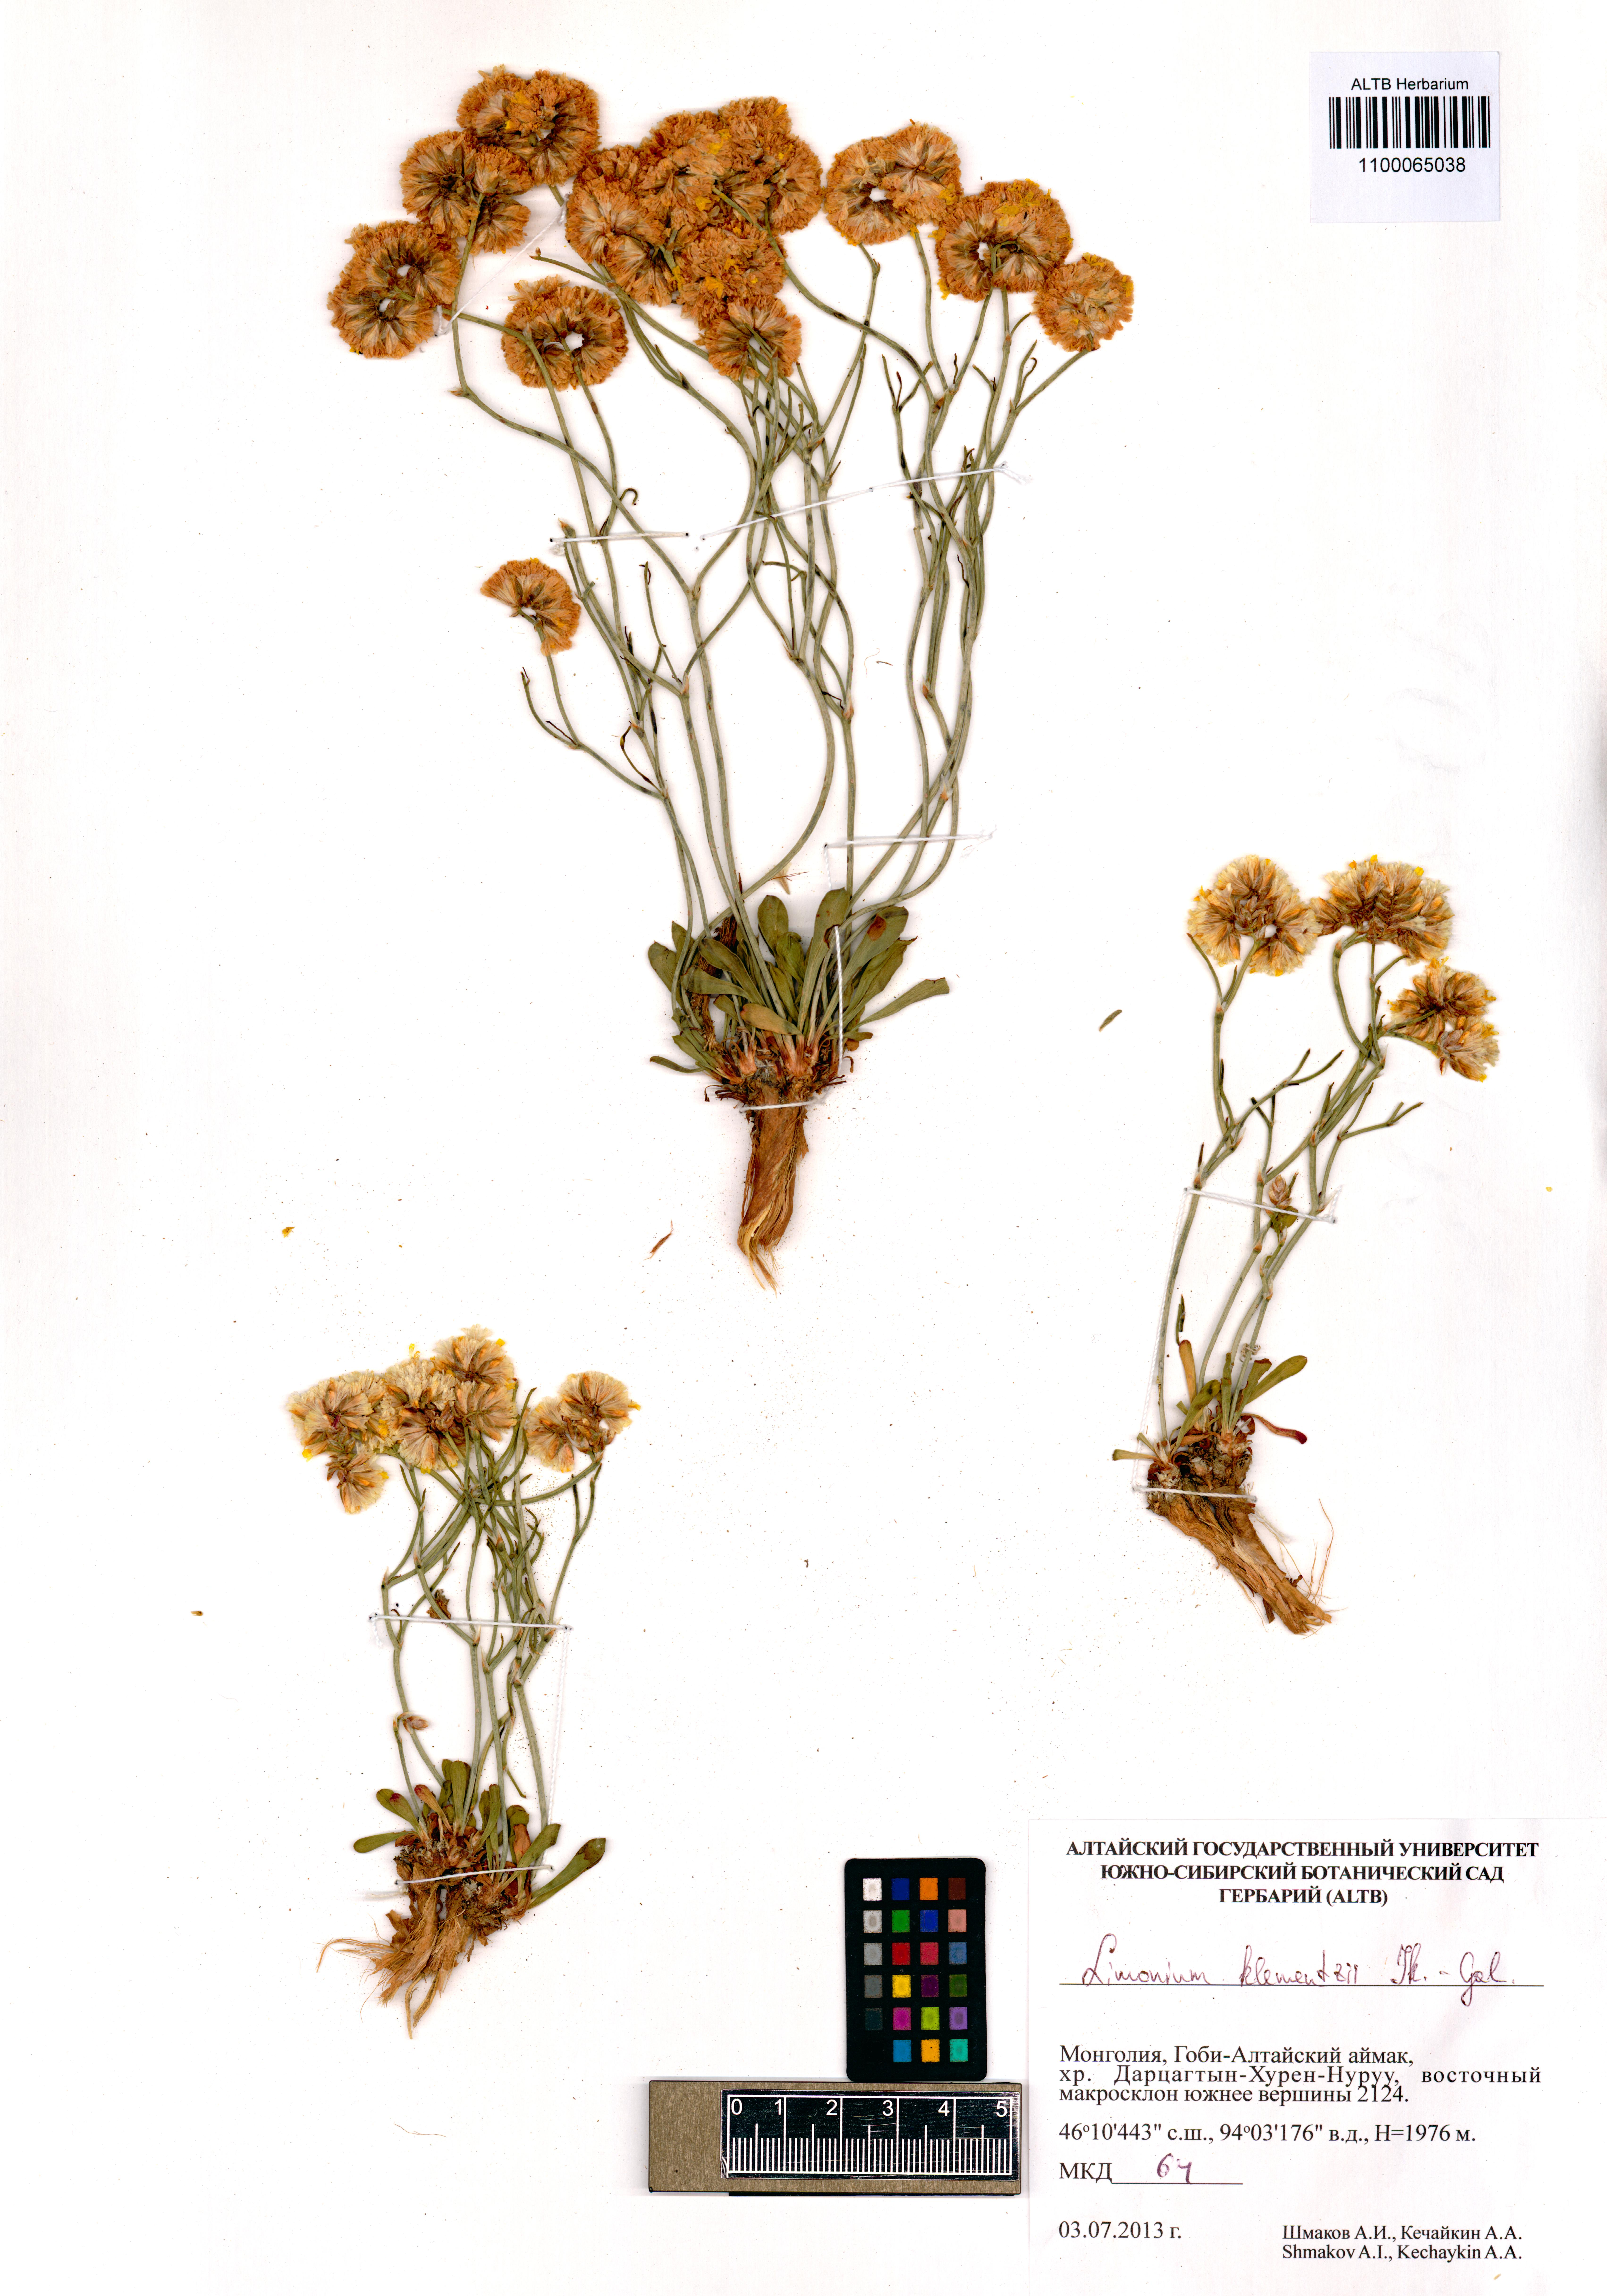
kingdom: Plantae
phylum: Tracheophyta
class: Magnoliopsida
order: Caryophyllales
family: Plumbaginaceae
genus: Limonium
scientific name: Limonium klementzii
